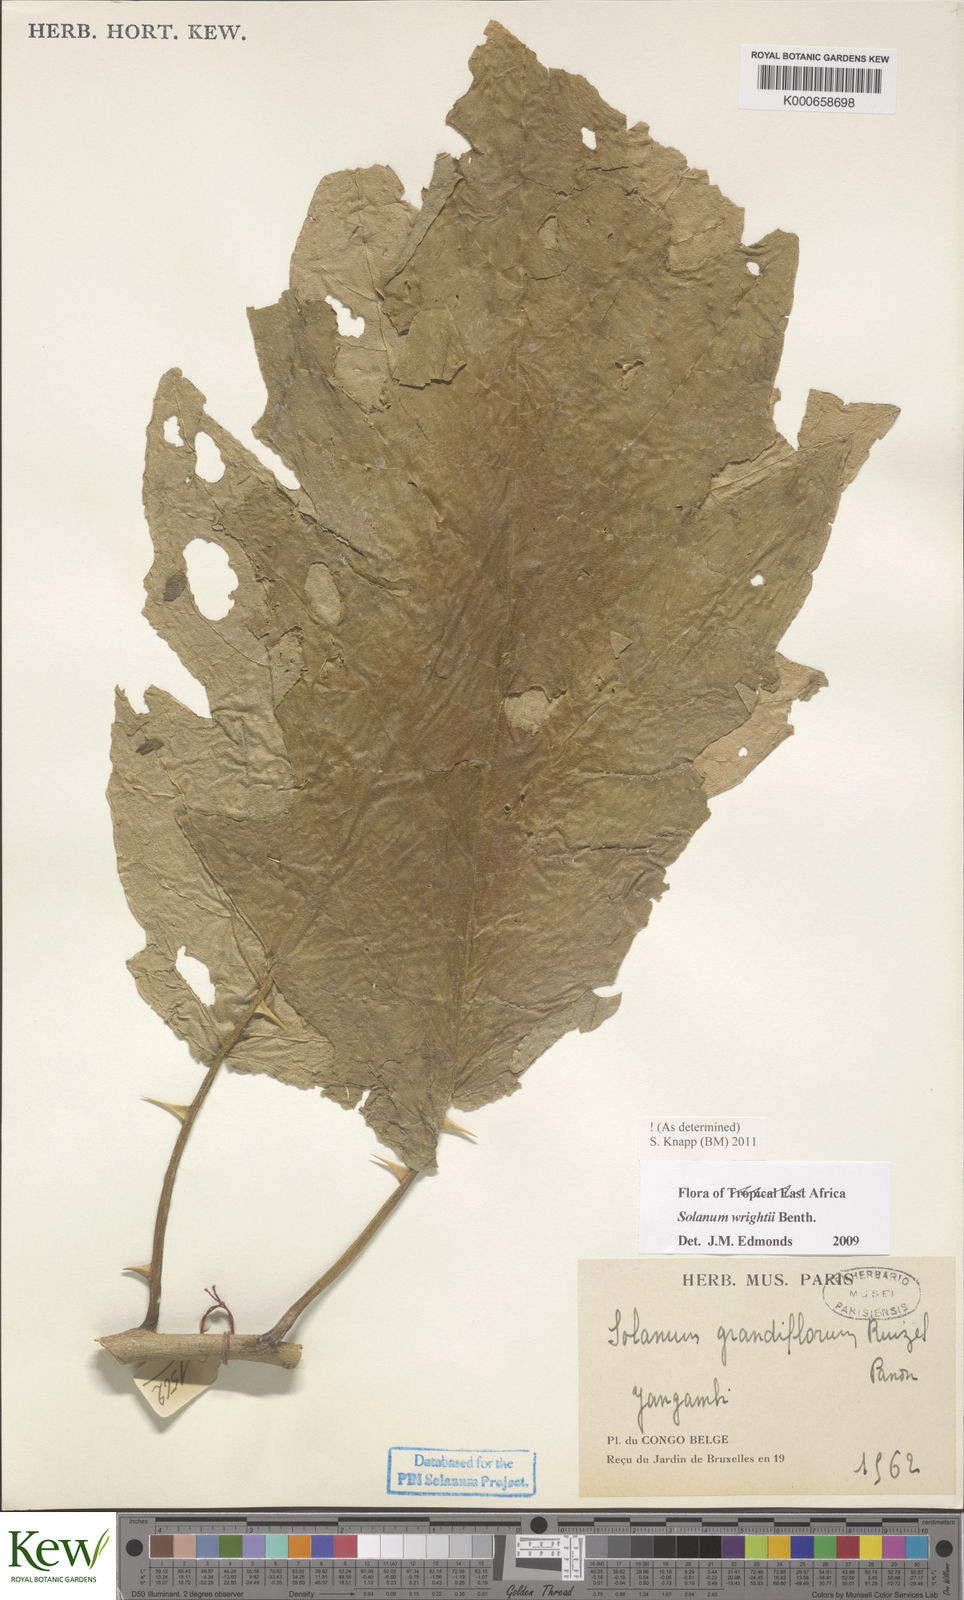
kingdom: Plantae
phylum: Tracheophyta
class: Magnoliopsida
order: Solanales
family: Solanaceae
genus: Solanum
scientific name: Solanum wrightii
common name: Brazilian potato-tree
